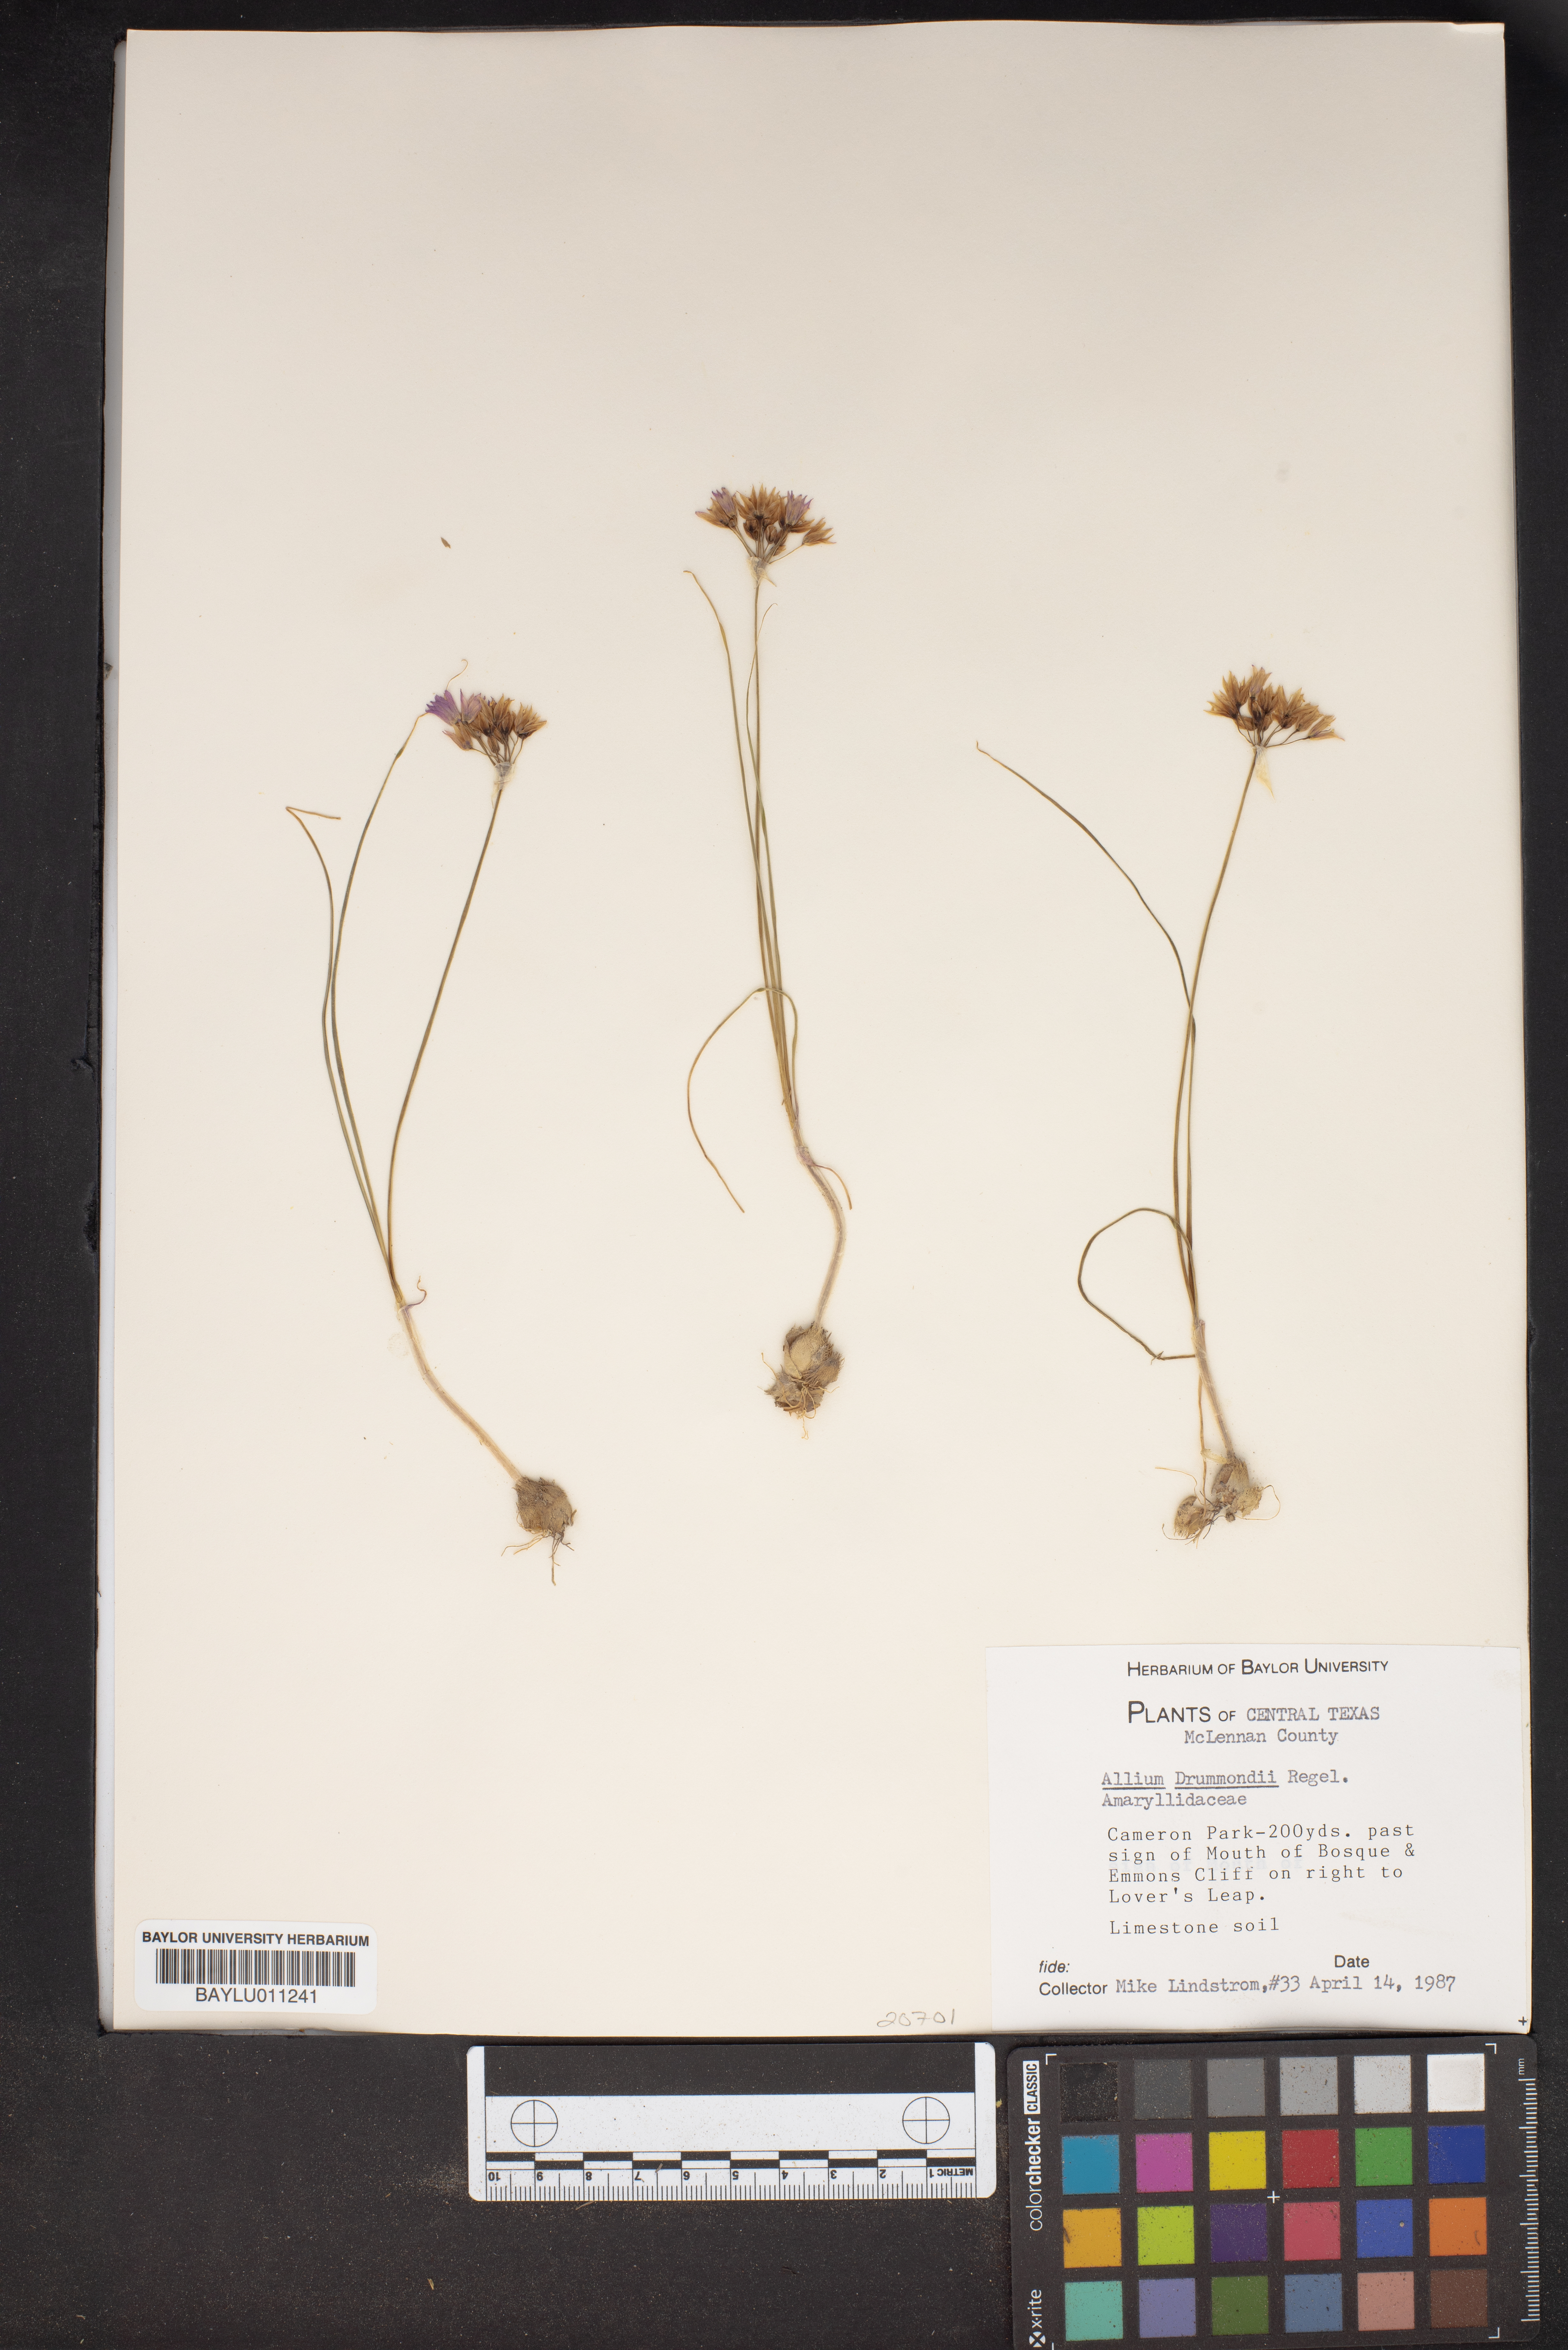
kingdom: Plantae
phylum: Tracheophyta
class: Liliopsida
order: Asparagales
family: Amaryllidaceae
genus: Allium
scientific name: Allium drummondii
